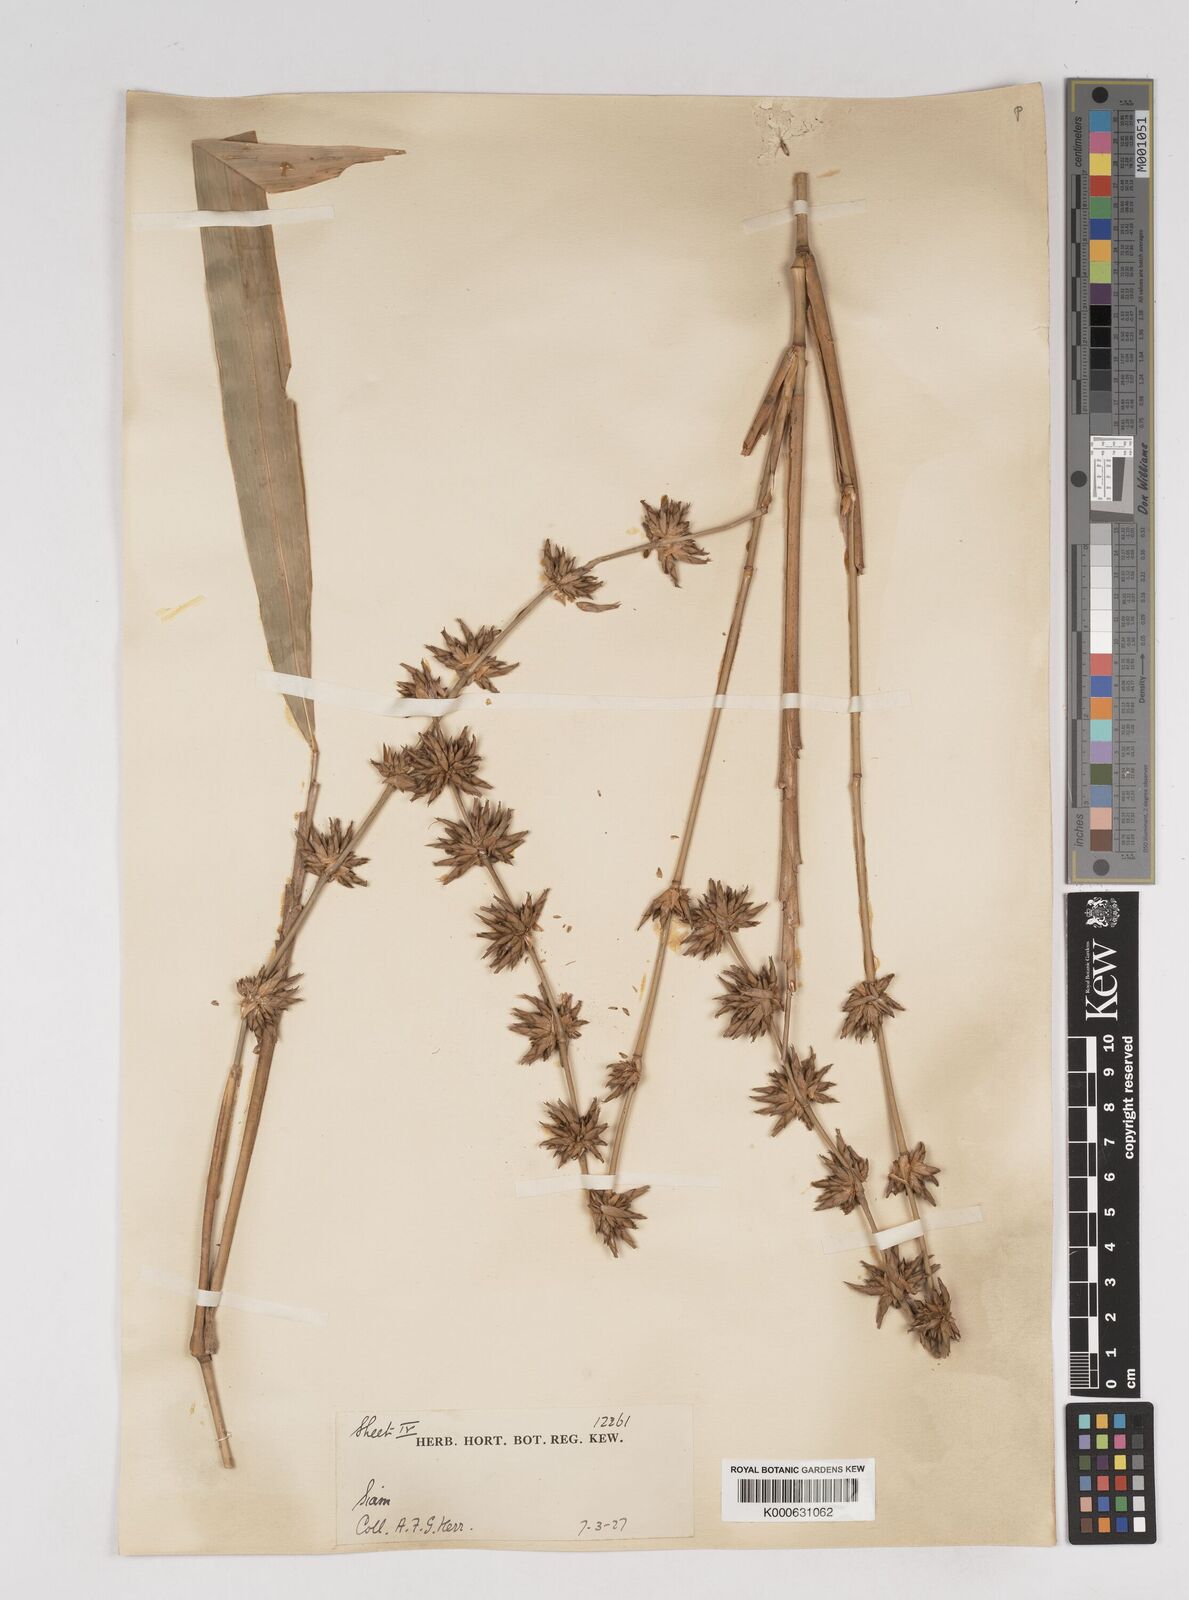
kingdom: Plantae
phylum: Tracheophyta
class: Liliopsida
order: Poales
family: Poaceae
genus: Gigantochloa
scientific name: Gigantochloa apus
